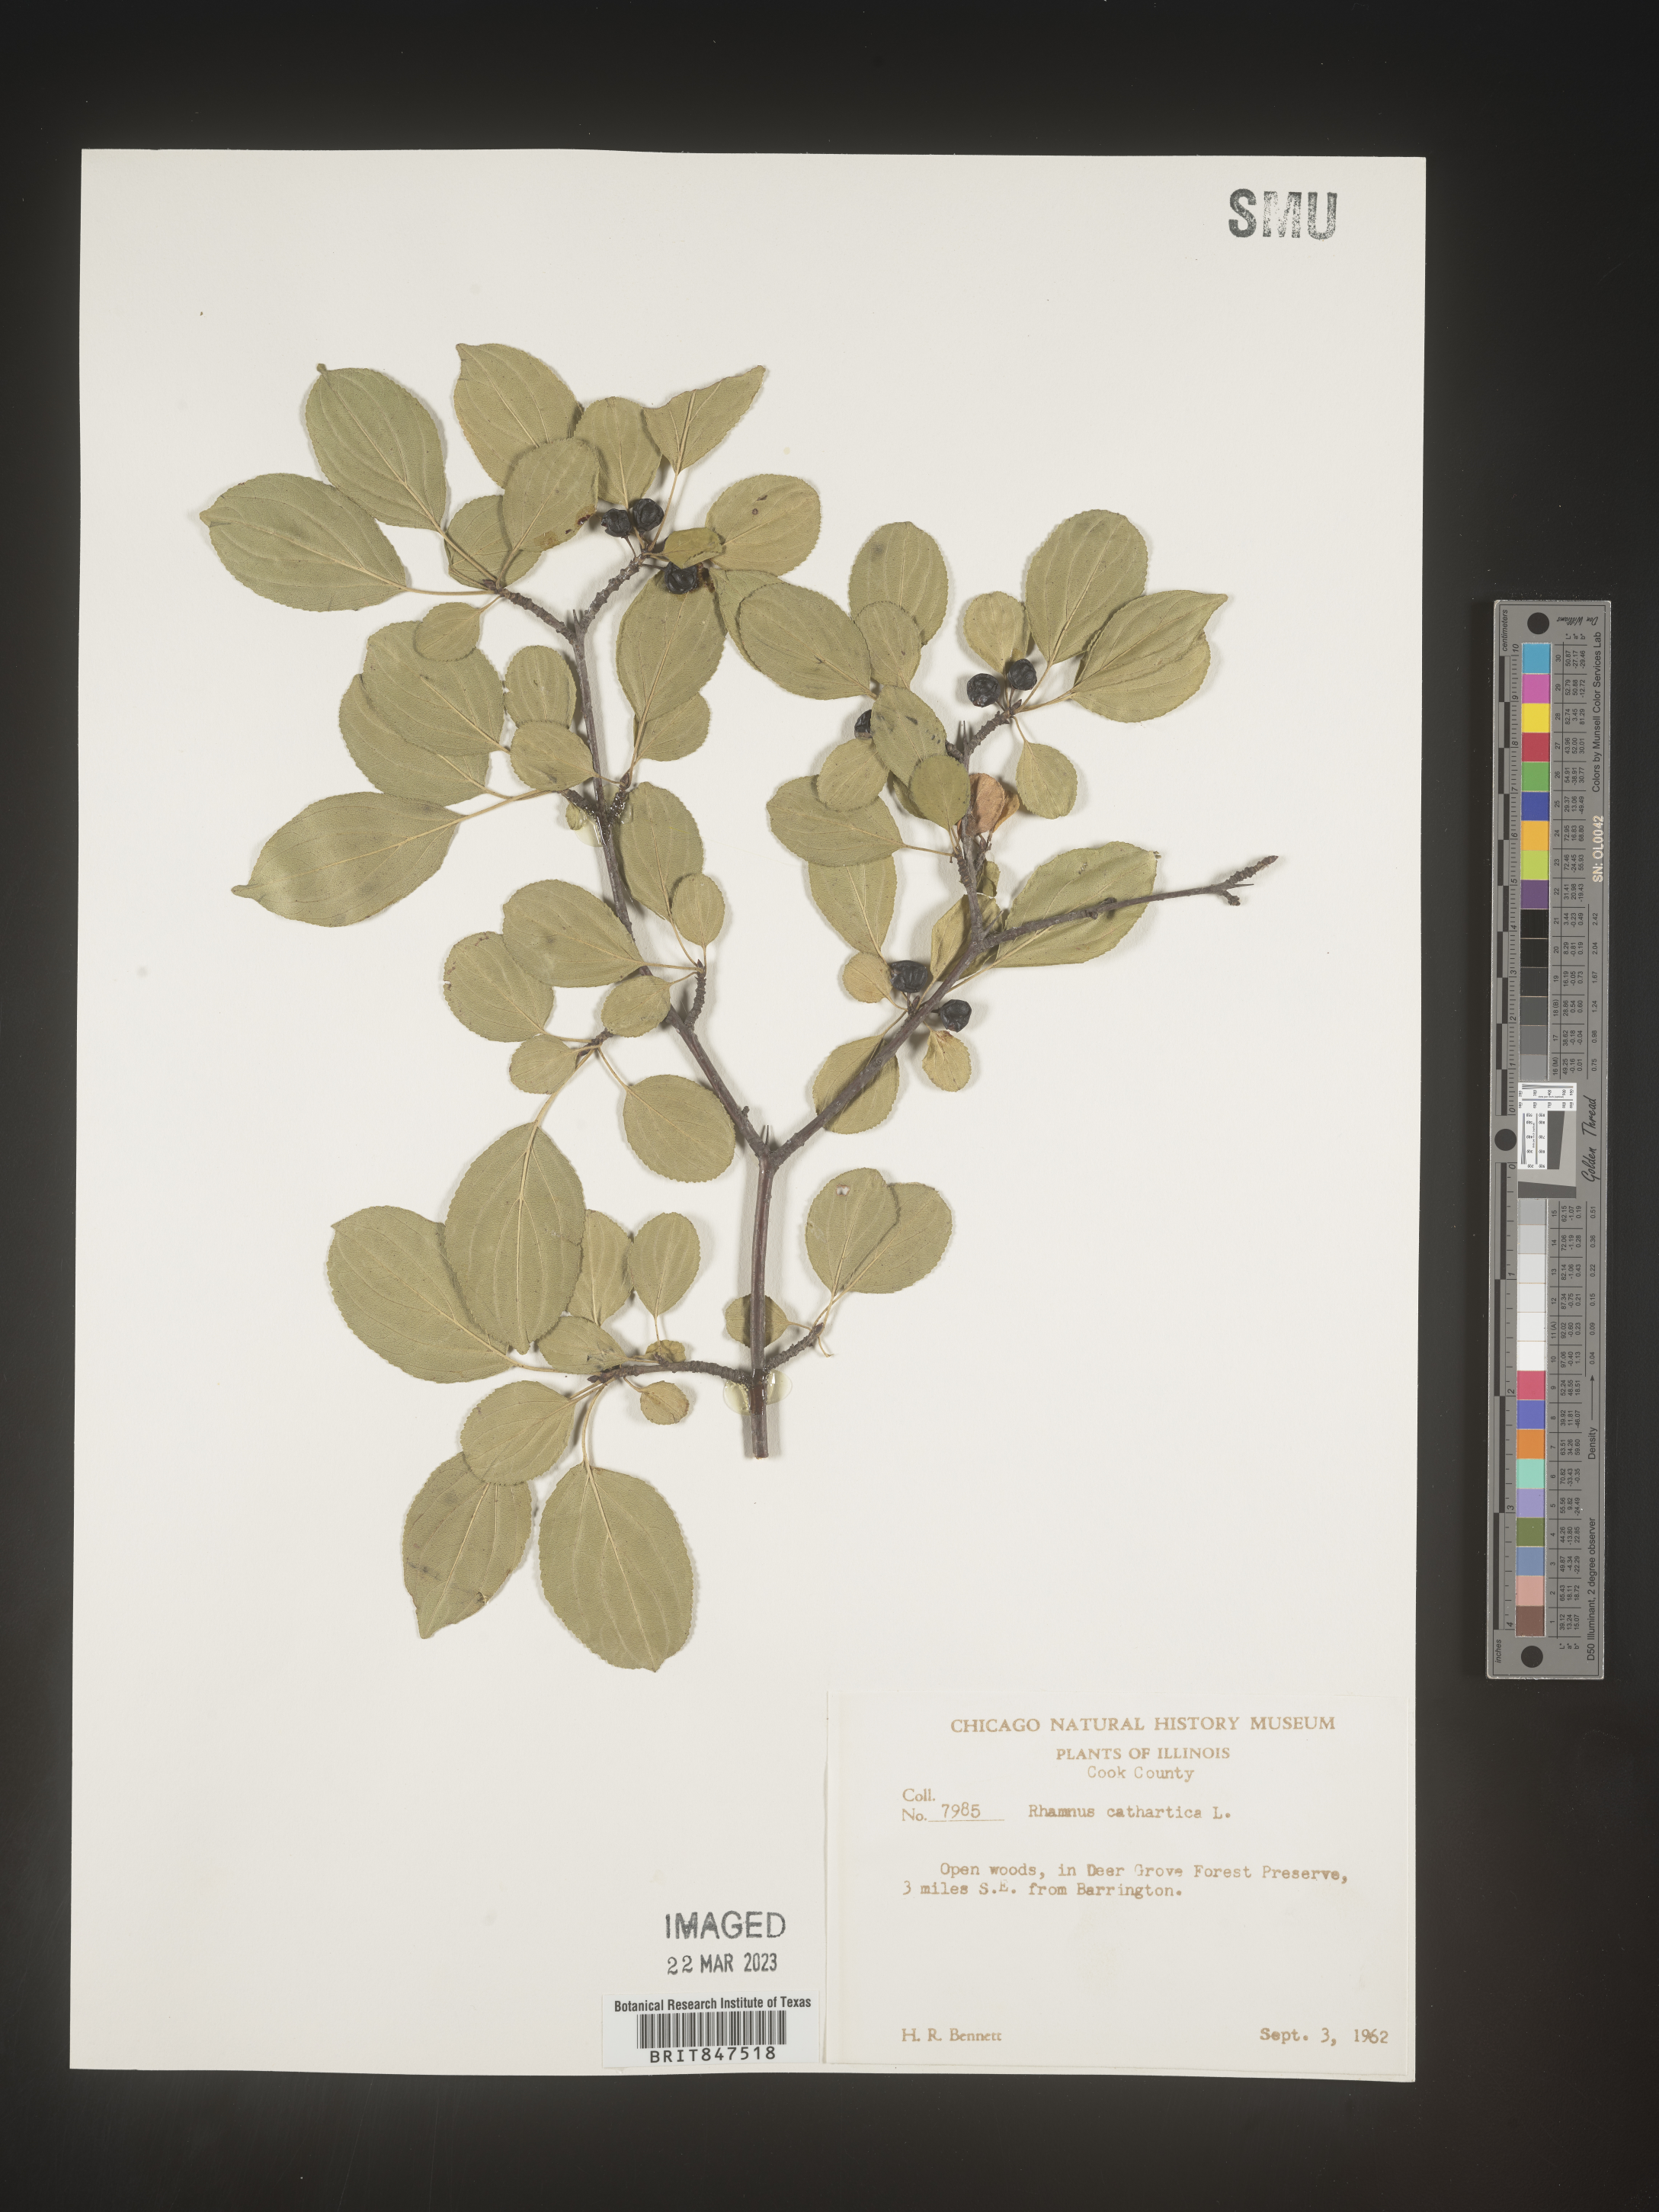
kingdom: Plantae
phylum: Tracheophyta
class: Magnoliopsida
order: Rosales
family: Rhamnaceae
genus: Rhamnus
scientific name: Rhamnus cathartica
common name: Common buckthorn
